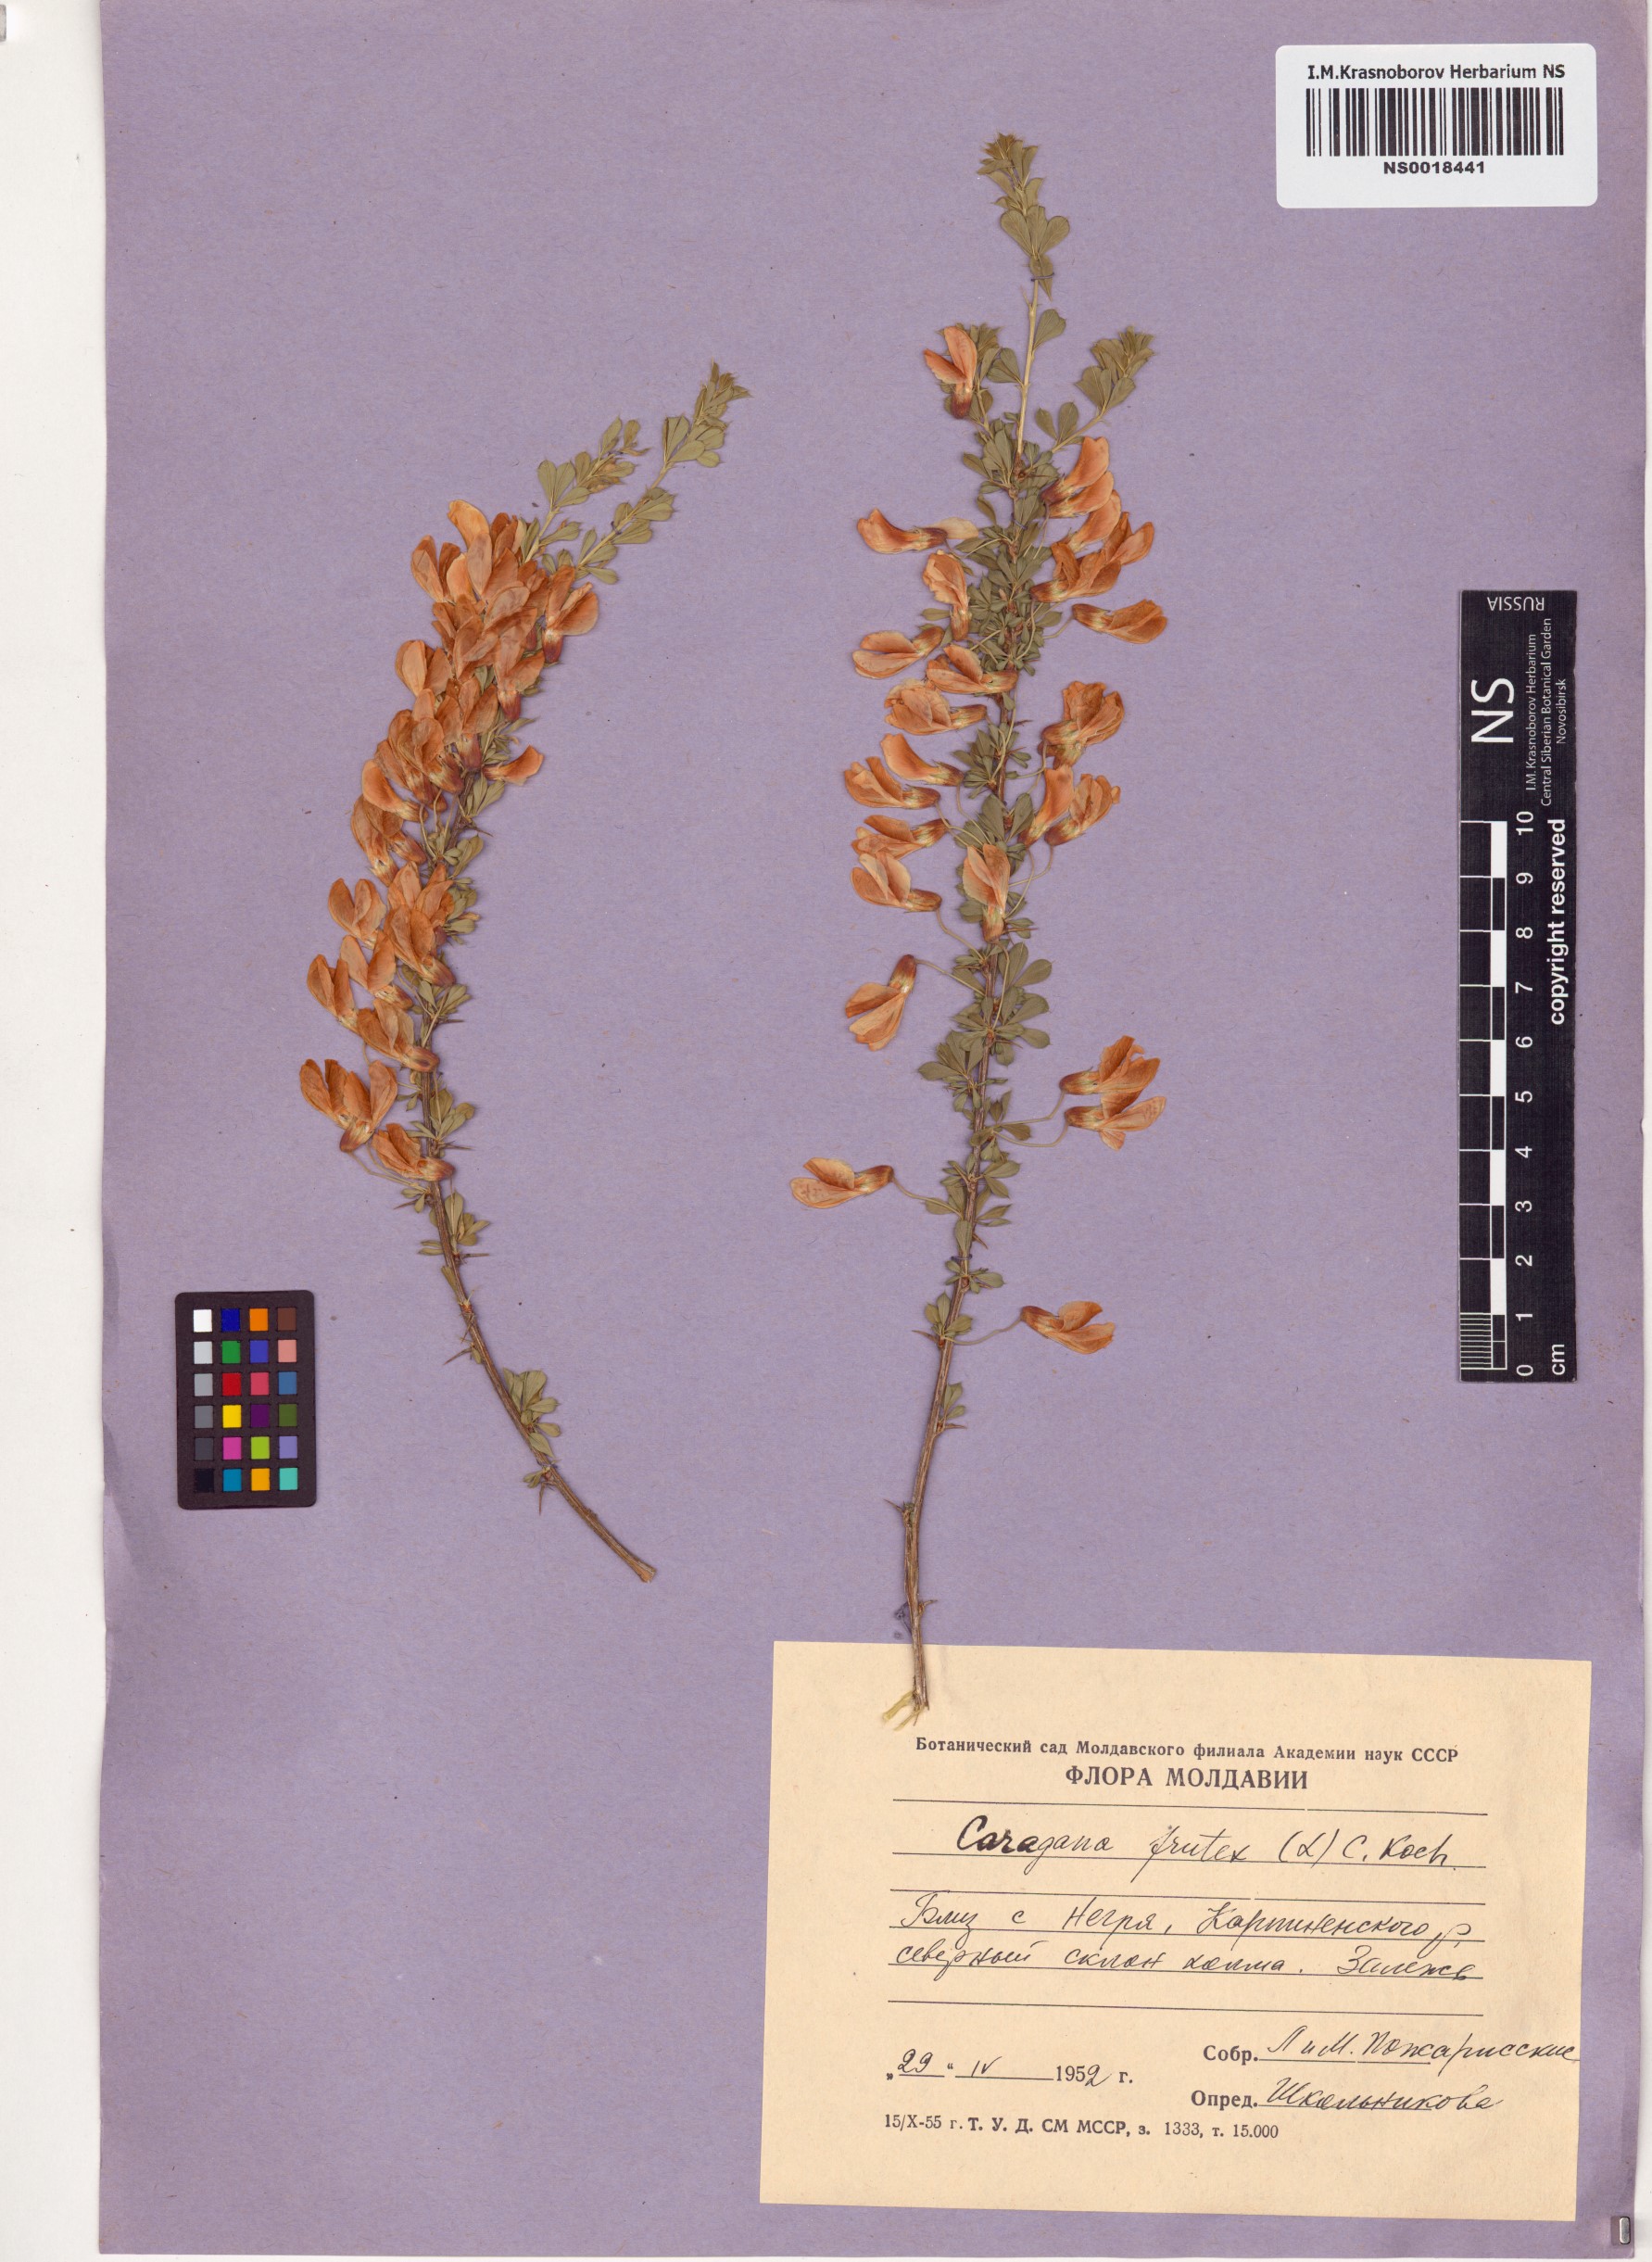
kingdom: Plantae
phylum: Tracheophyta
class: Magnoliopsida
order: Fabales
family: Fabaceae
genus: Caragana
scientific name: Caragana frutex
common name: Russian peashrub
